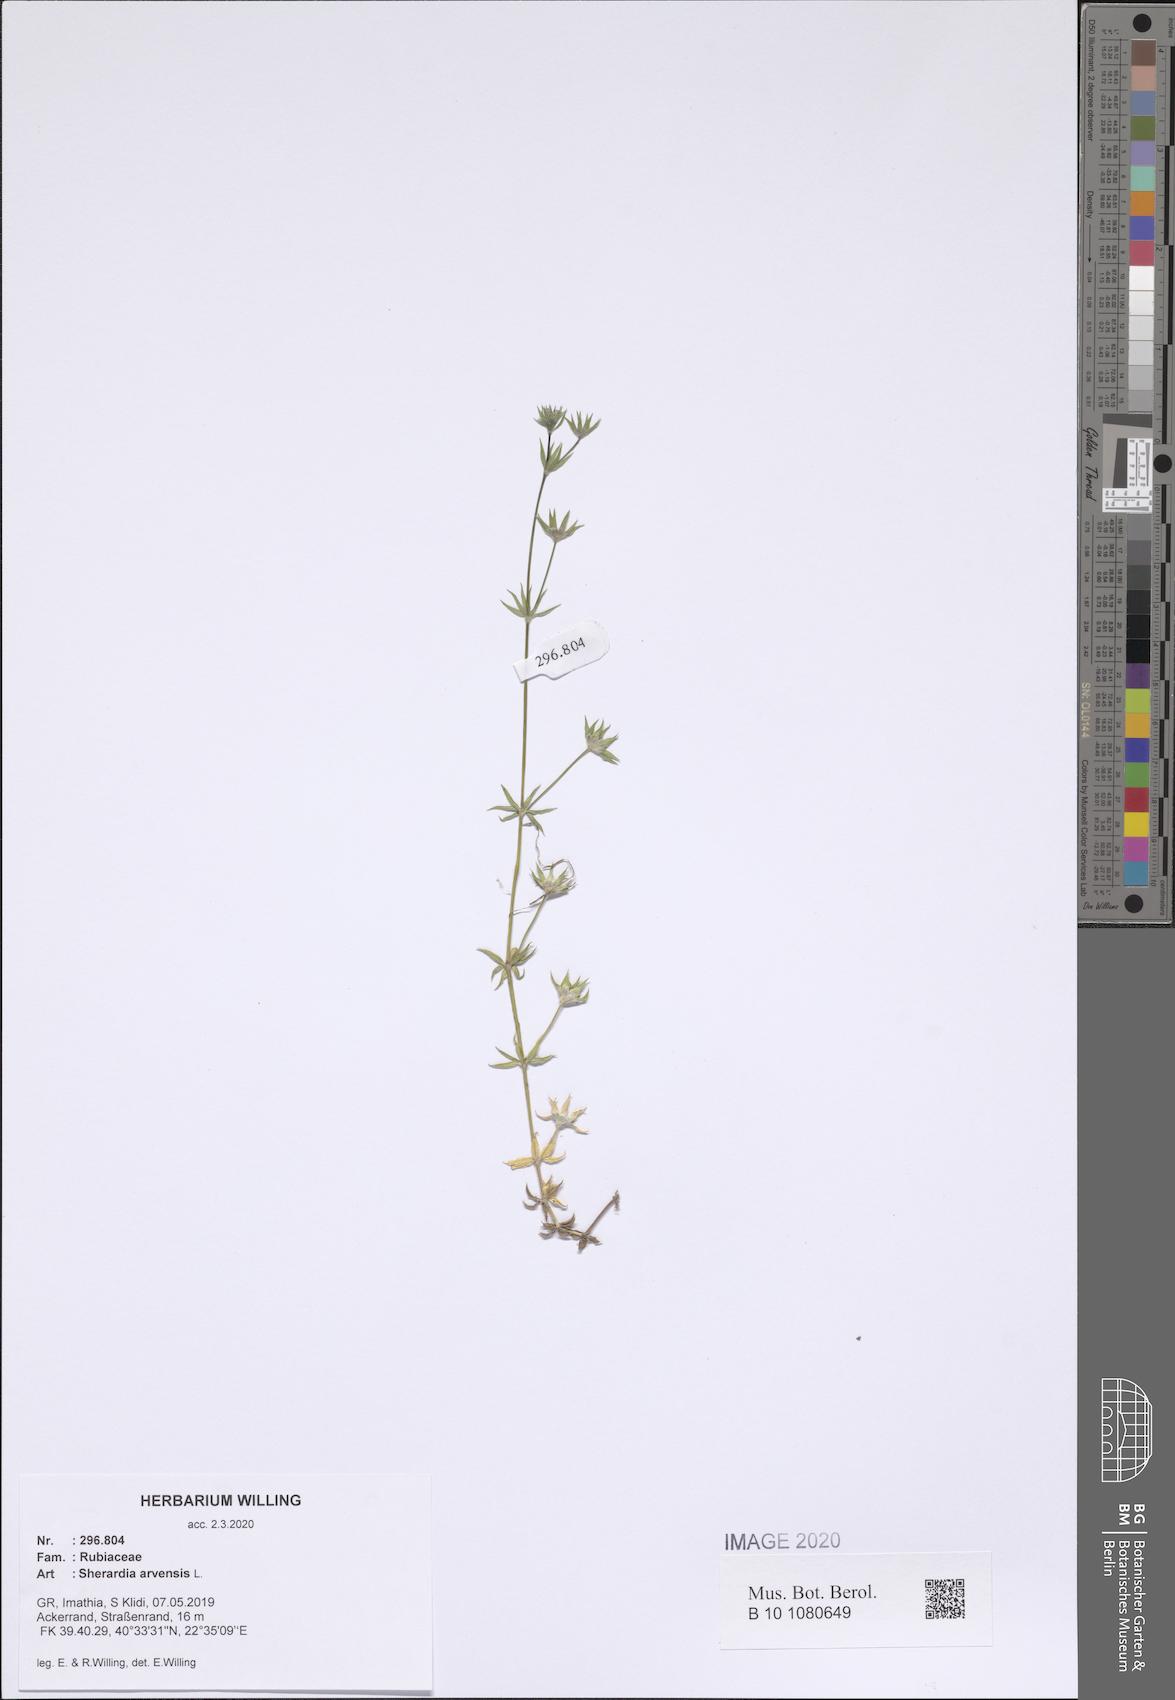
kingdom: Plantae
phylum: Tracheophyta
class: Magnoliopsida
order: Gentianales
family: Rubiaceae
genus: Sherardia
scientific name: Sherardia arvensis
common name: Field madder
